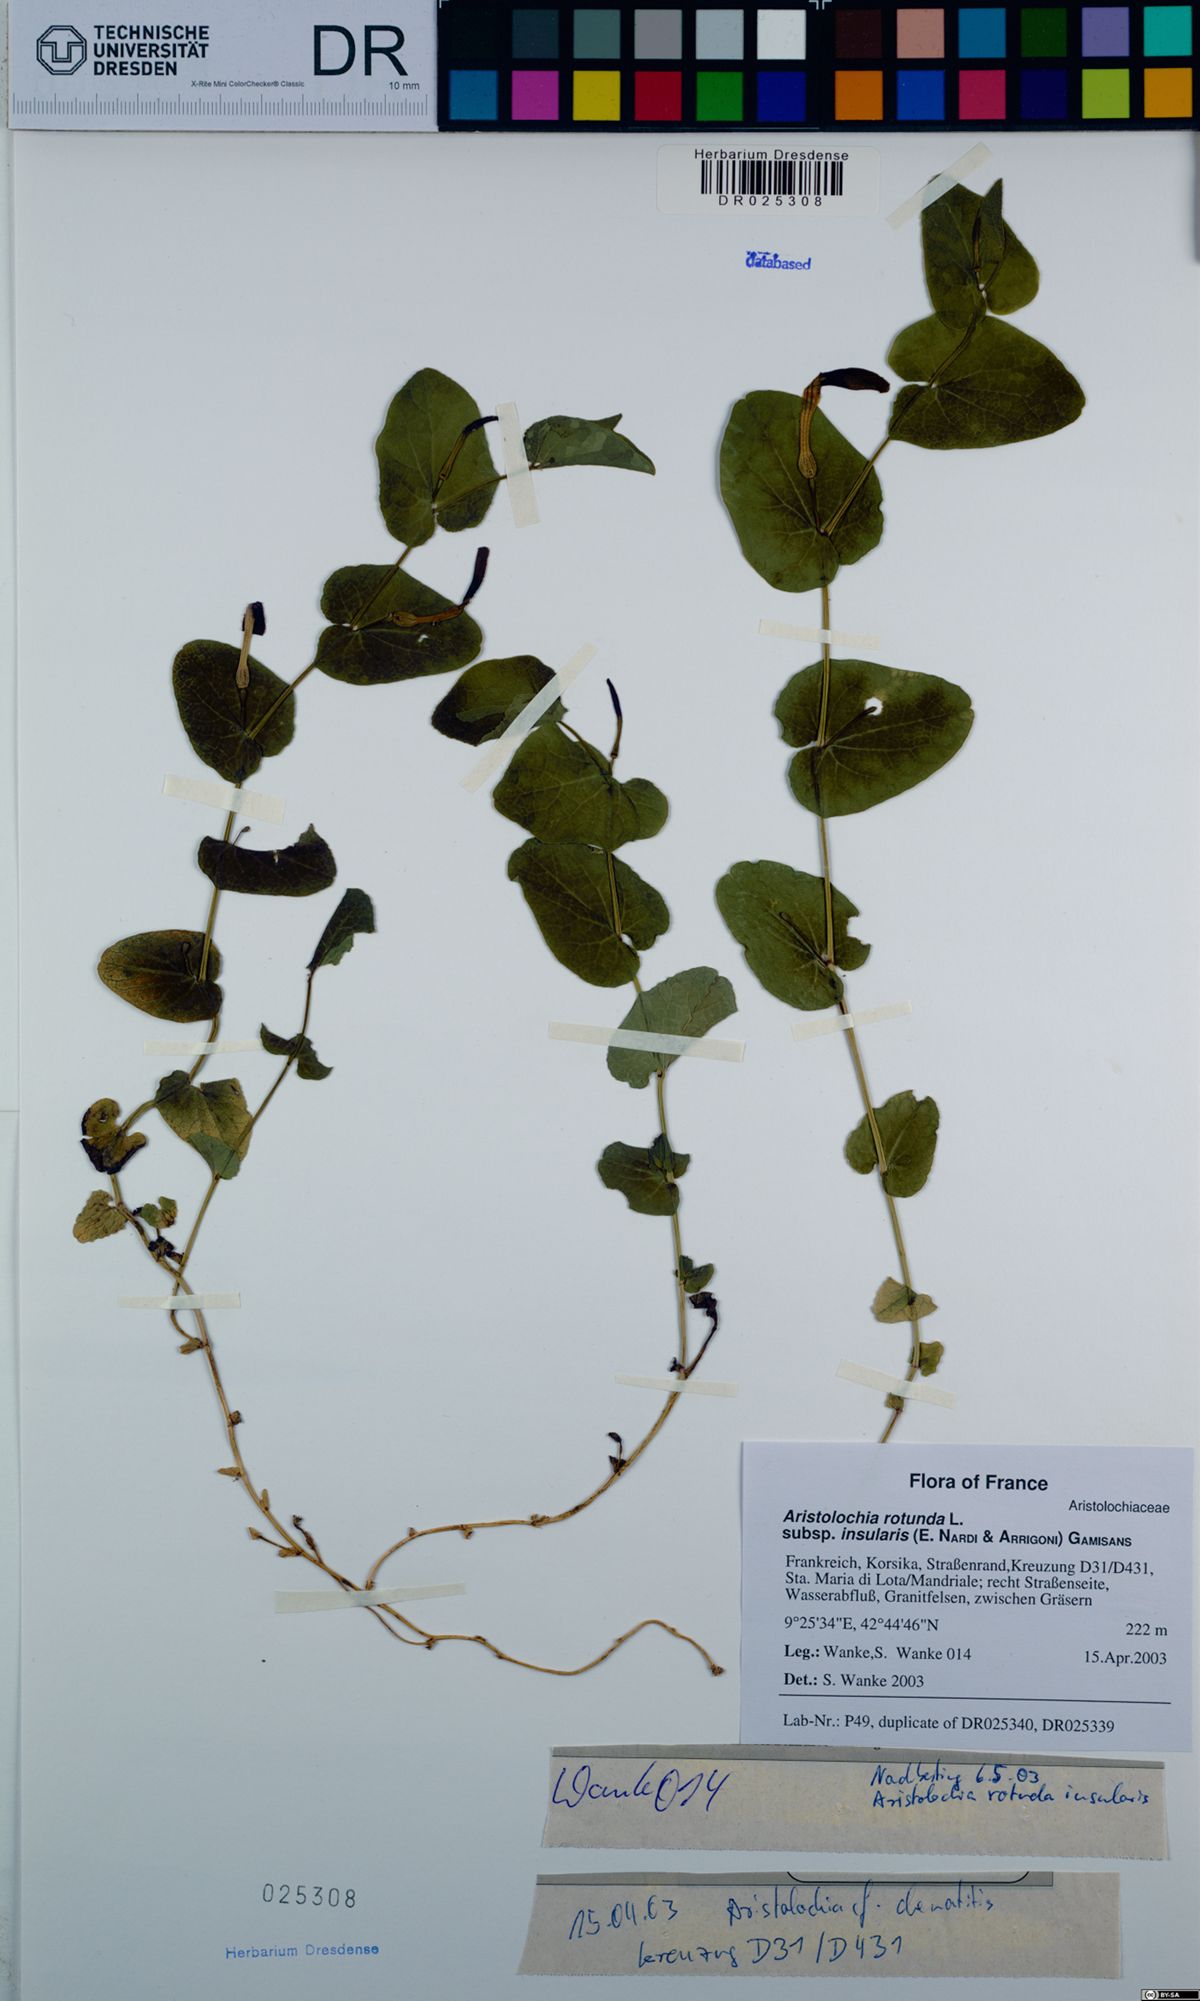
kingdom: Plantae
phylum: Tracheophyta
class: Magnoliopsida
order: Piperales
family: Aristolochiaceae
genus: Aristolochia
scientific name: Aristolochia rotunda
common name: Smearwort
